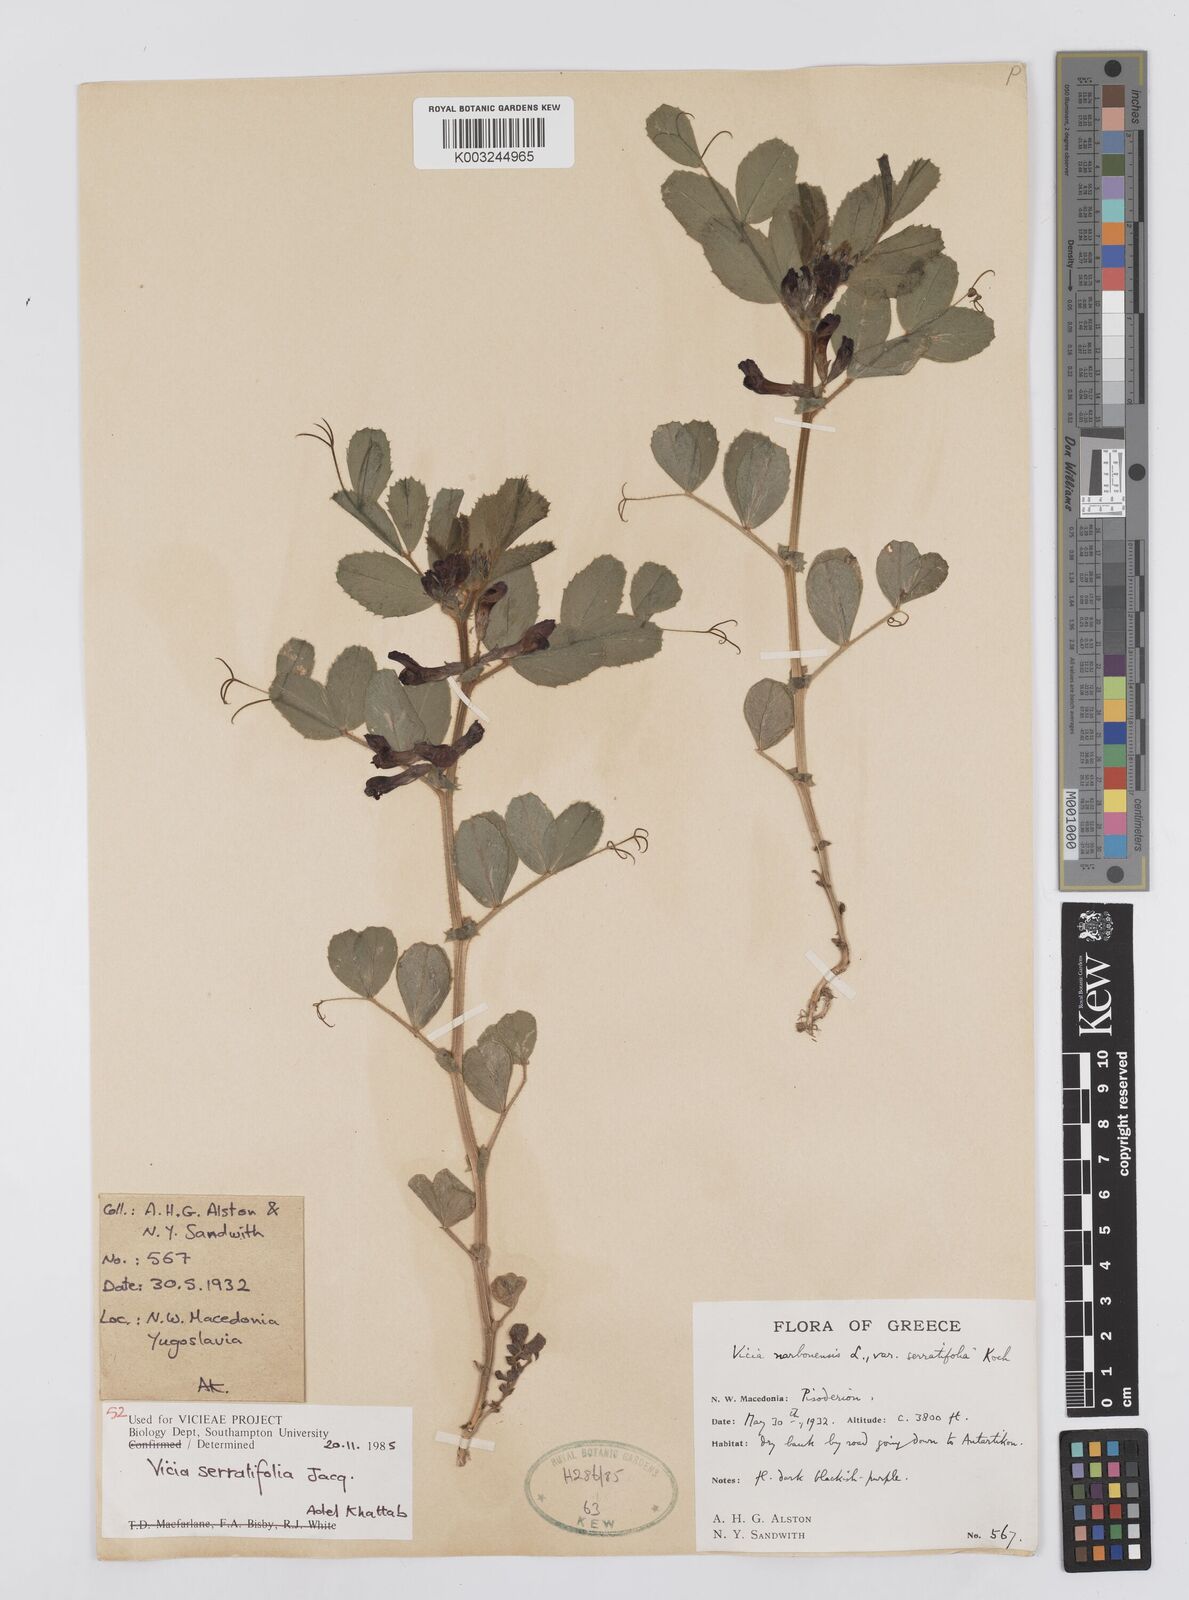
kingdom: Plantae
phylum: Tracheophyta
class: Magnoliopsida
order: Fabales
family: Fabaceae
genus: Vicia
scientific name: Vicia serratifolia
